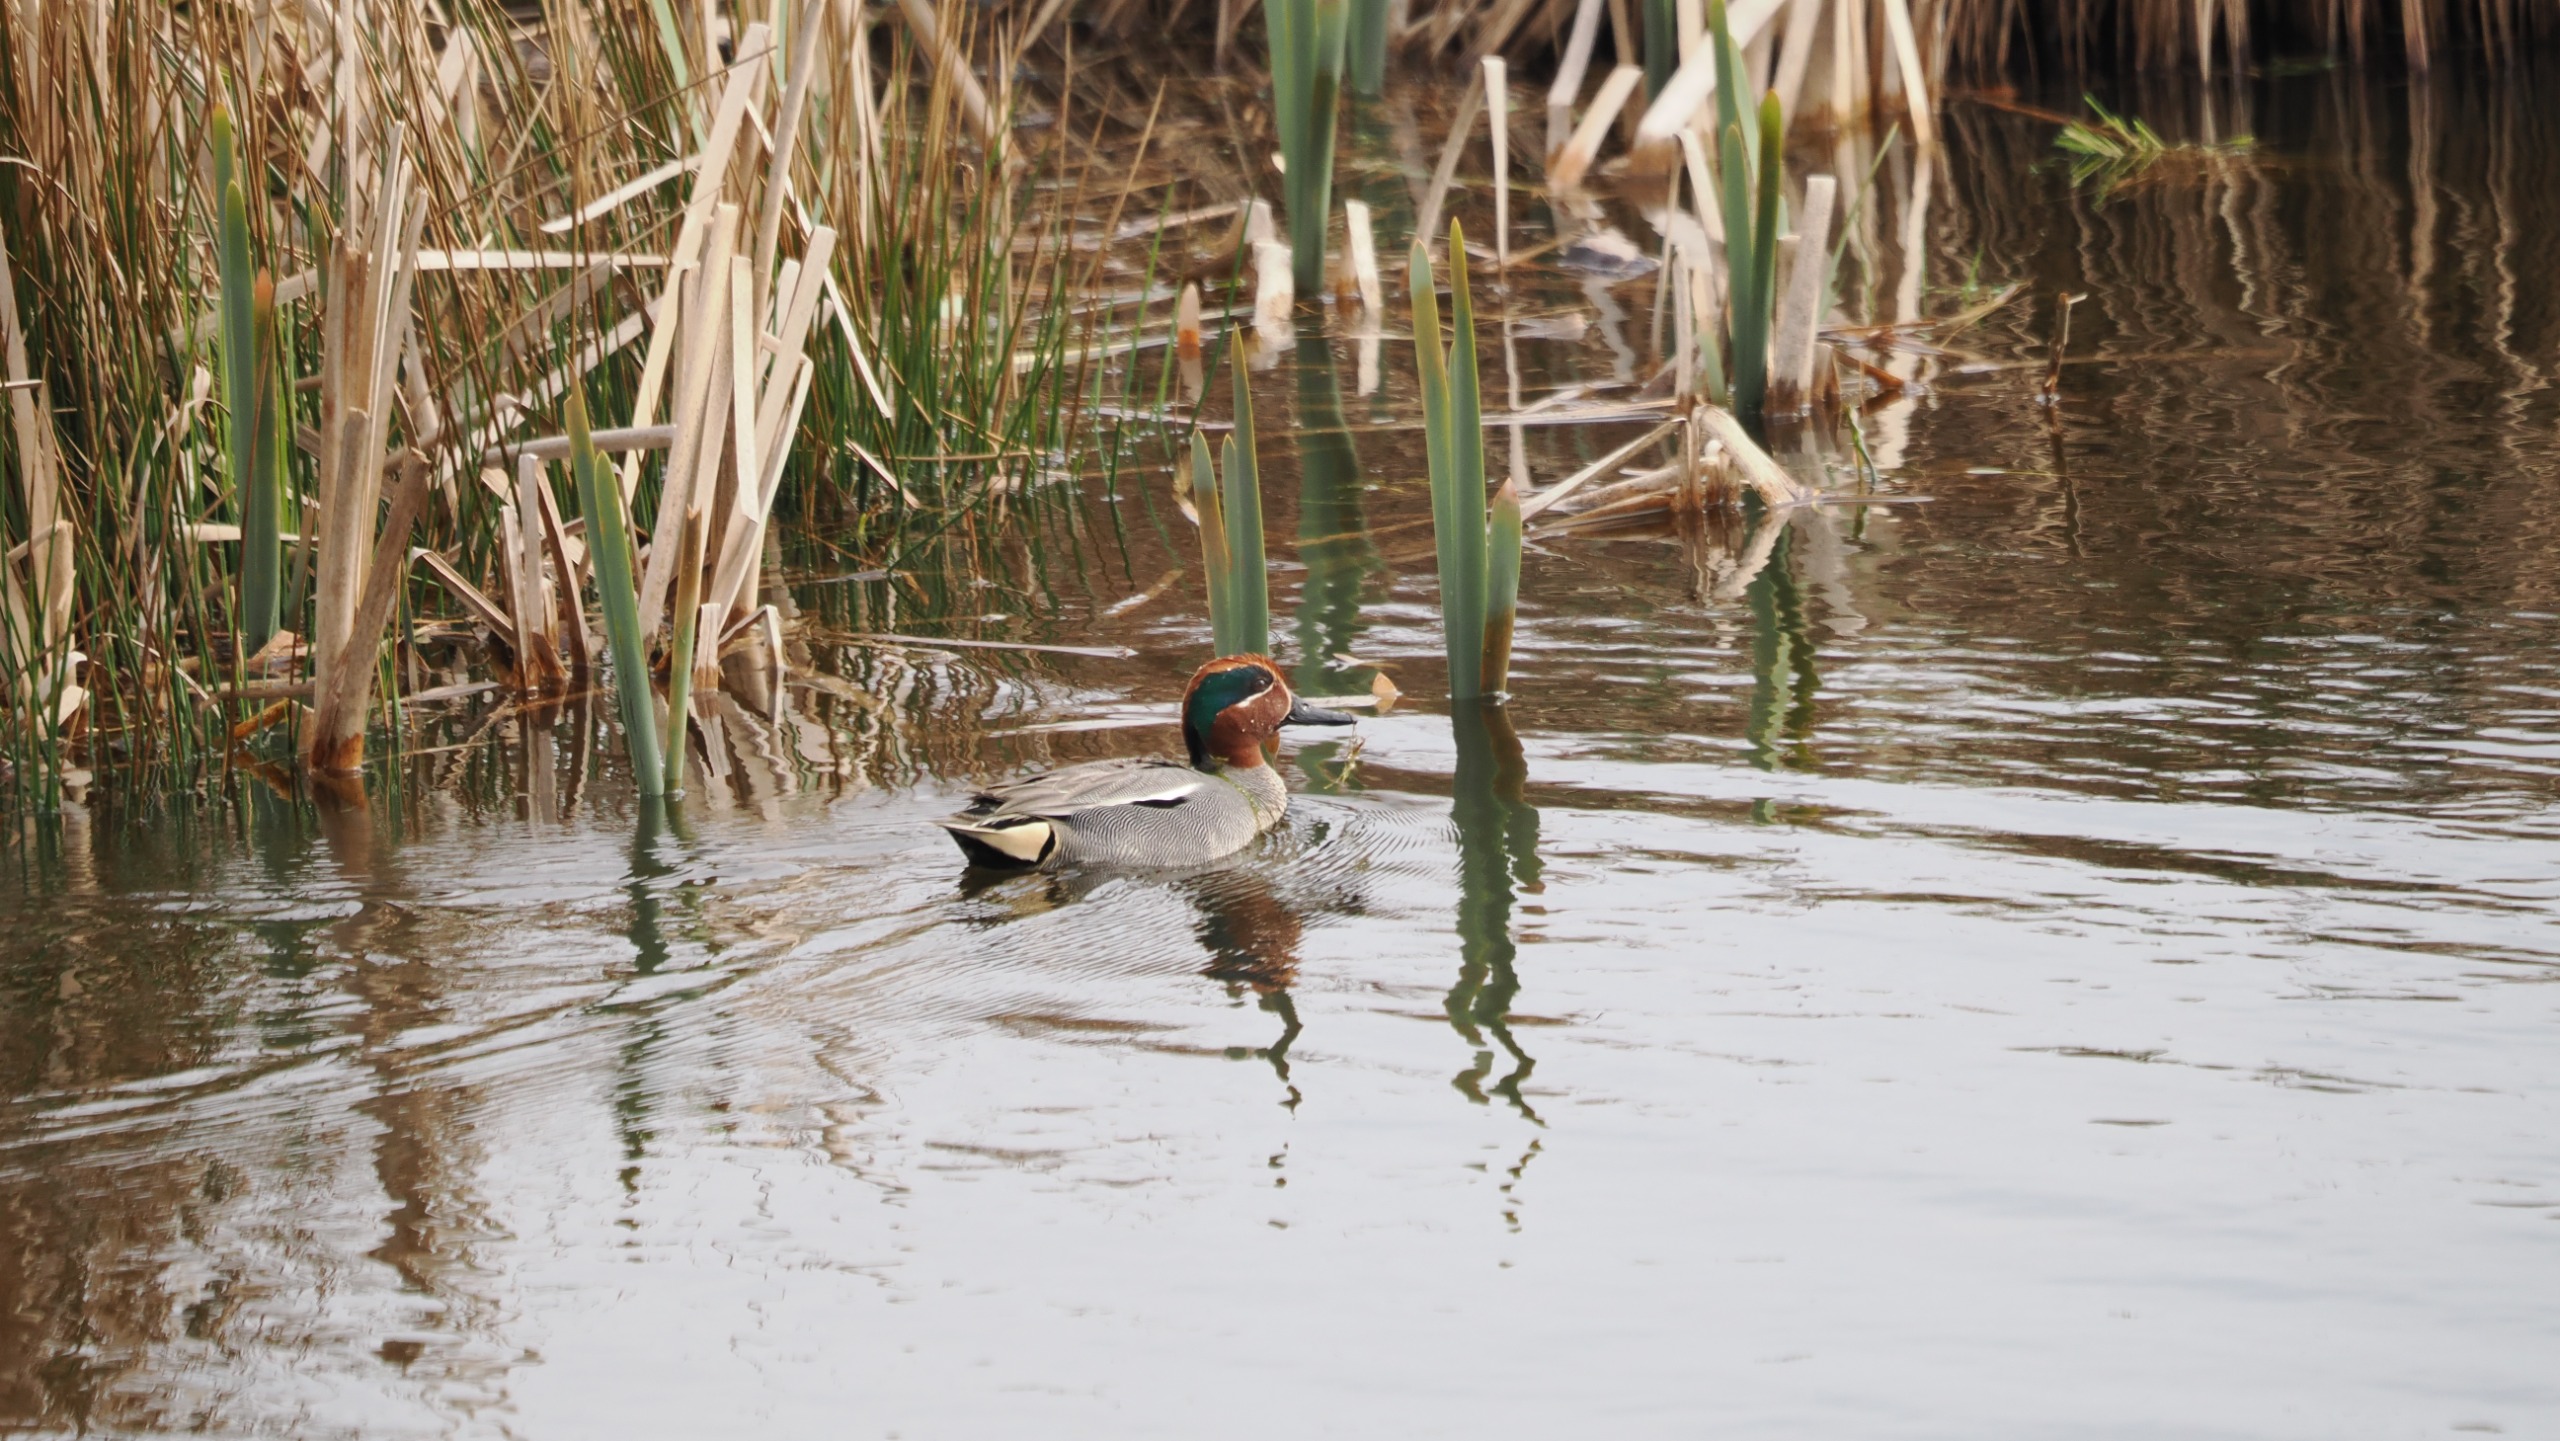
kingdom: Animalia
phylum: Chordata
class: Aves
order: Anseriformes
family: Anatidae
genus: Anas
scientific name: Anas crecca
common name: Krikand
